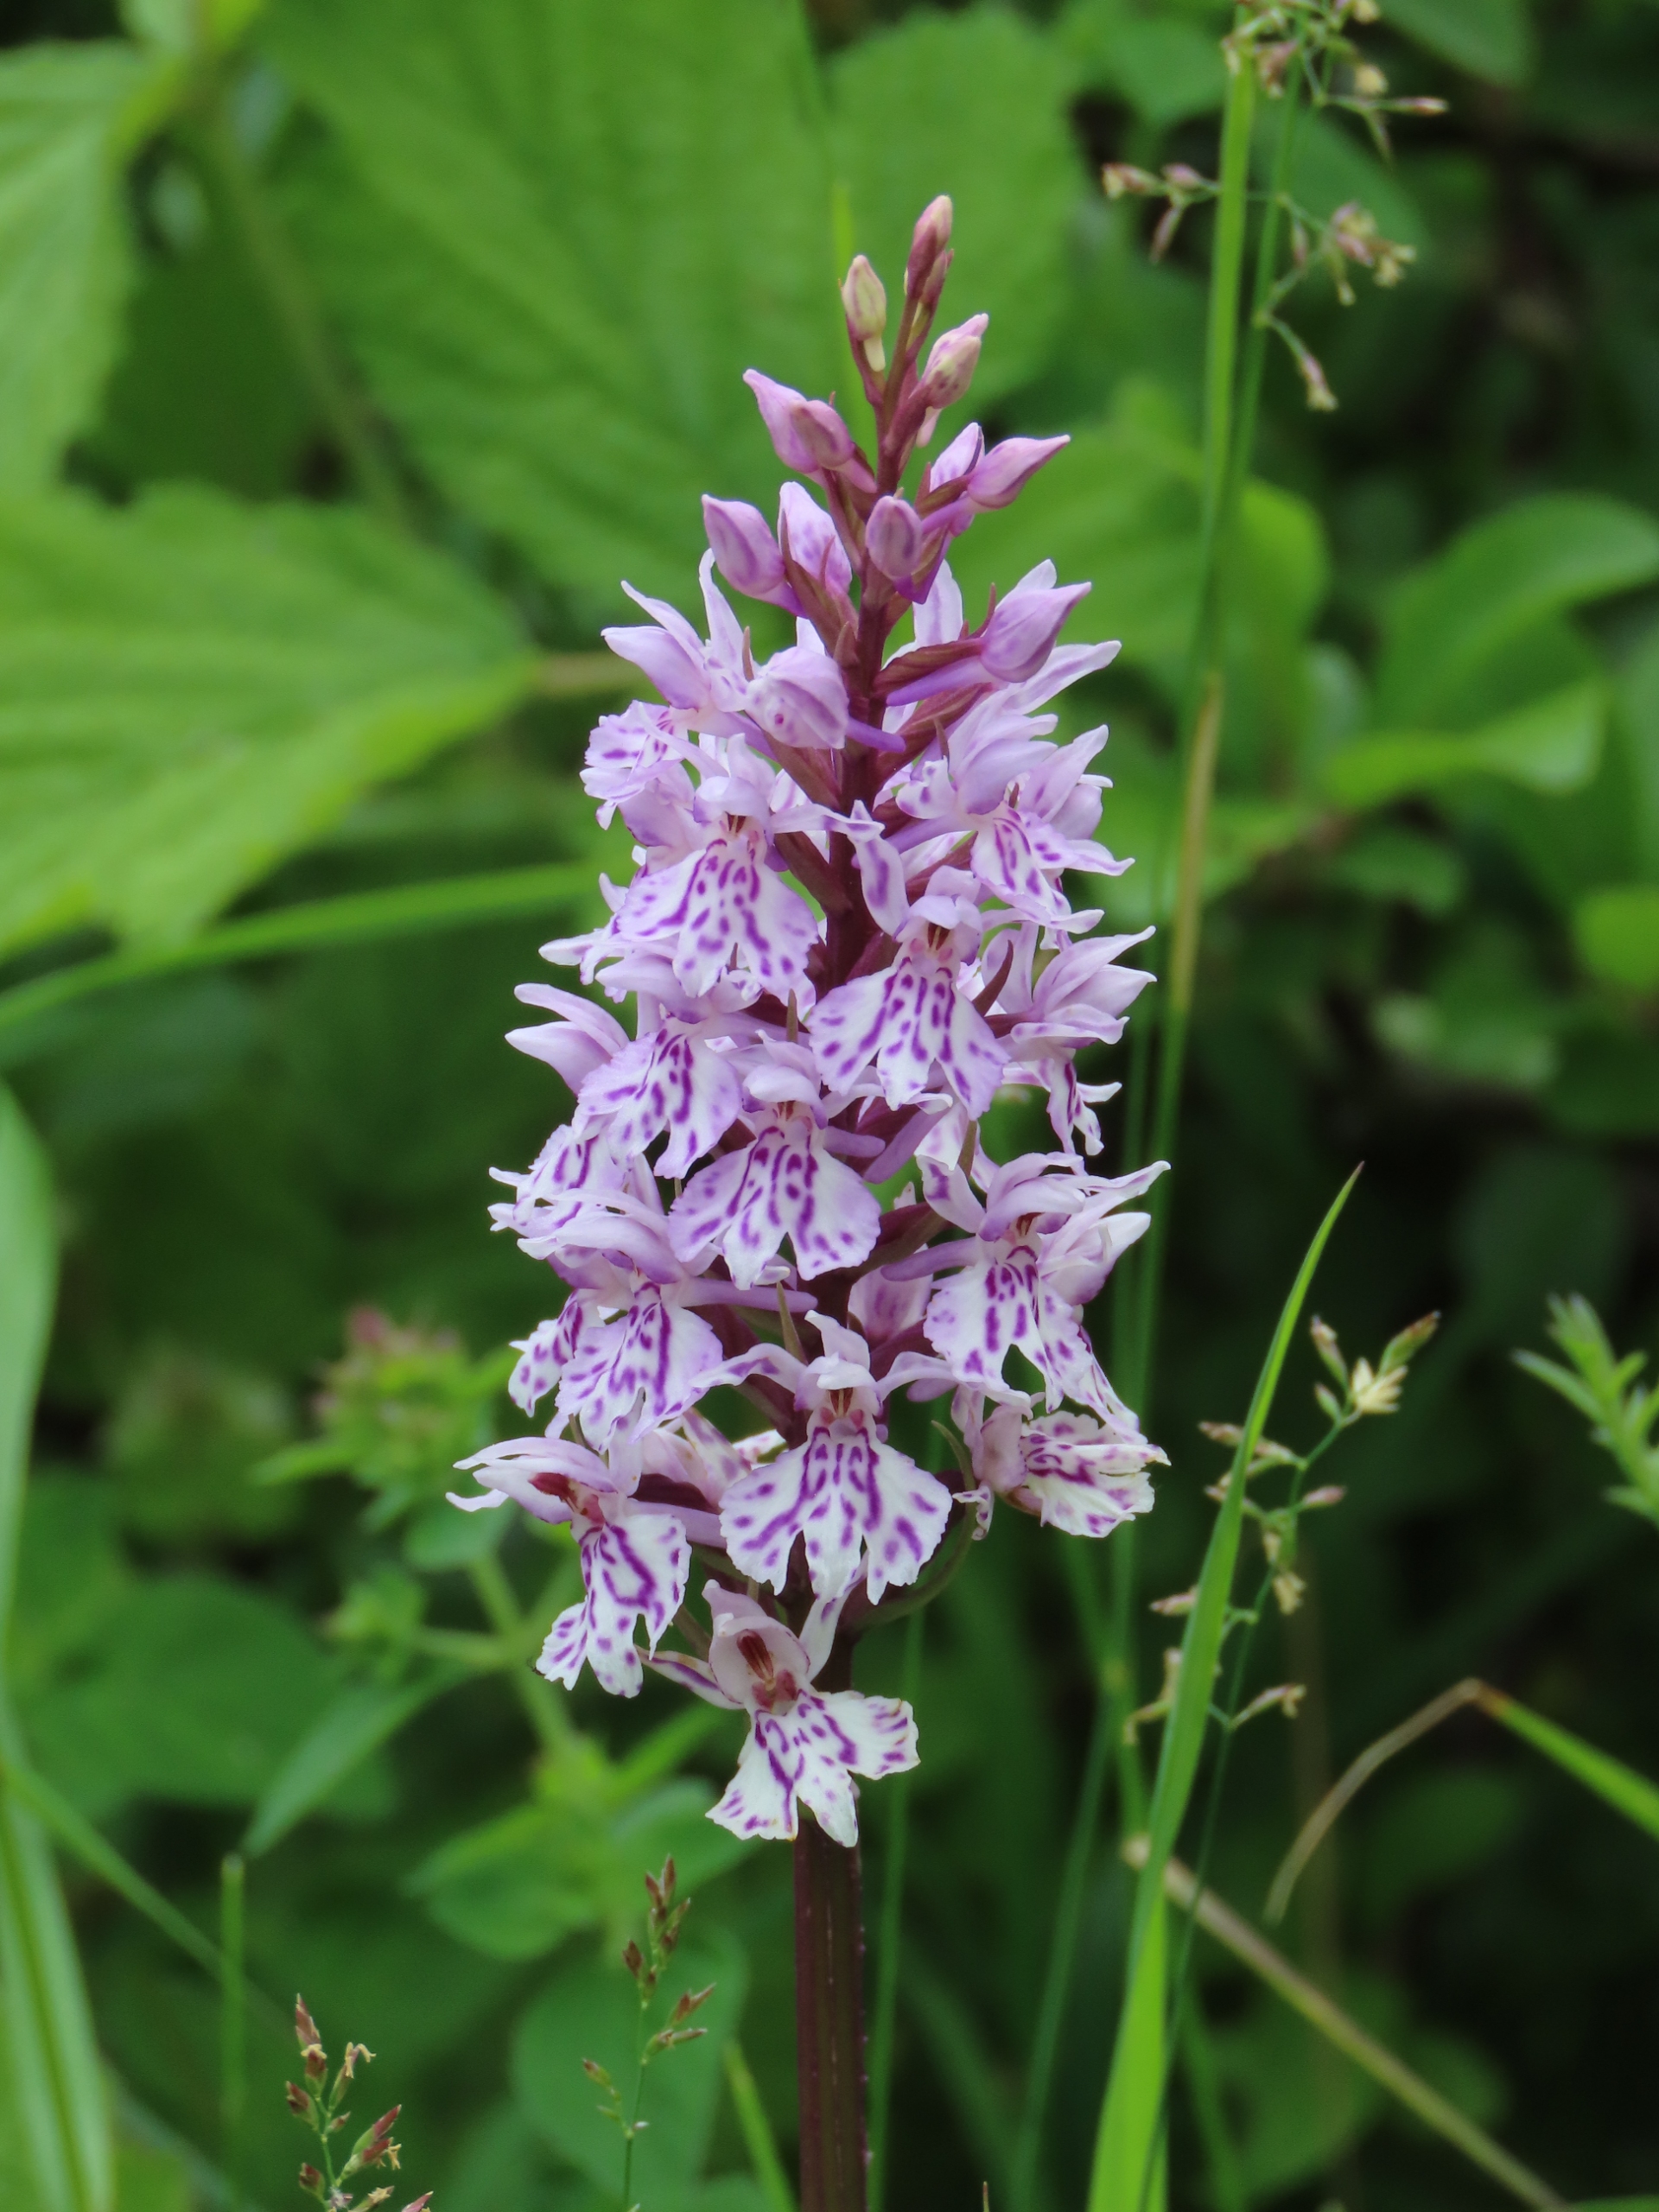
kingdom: Plantae
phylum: Tracheophyta
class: Liliopsida
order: Asparagales
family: Orchidaceae
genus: Dactylorhiza
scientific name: Dactylorhiza maculata
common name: Skov-gøgeurt
